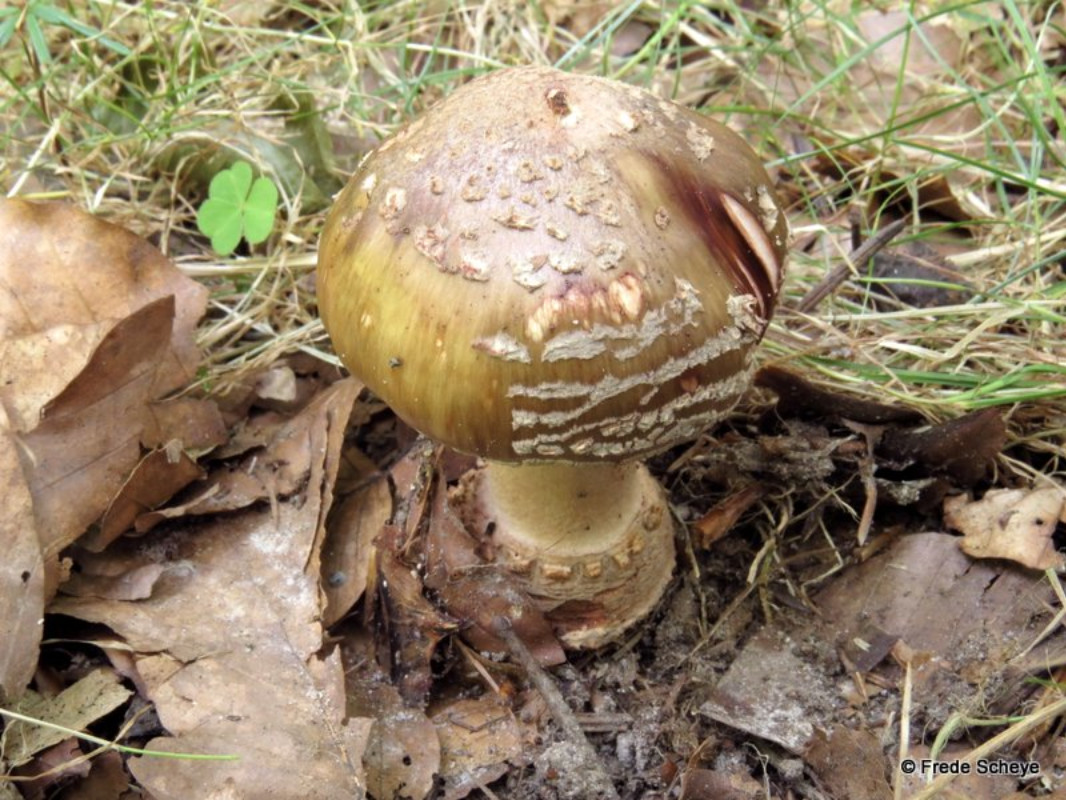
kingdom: Fungi
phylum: Basidiomycota
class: Agaricomycetes
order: Agaricales
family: Amanitaceae
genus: Amanita
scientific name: Amanita
